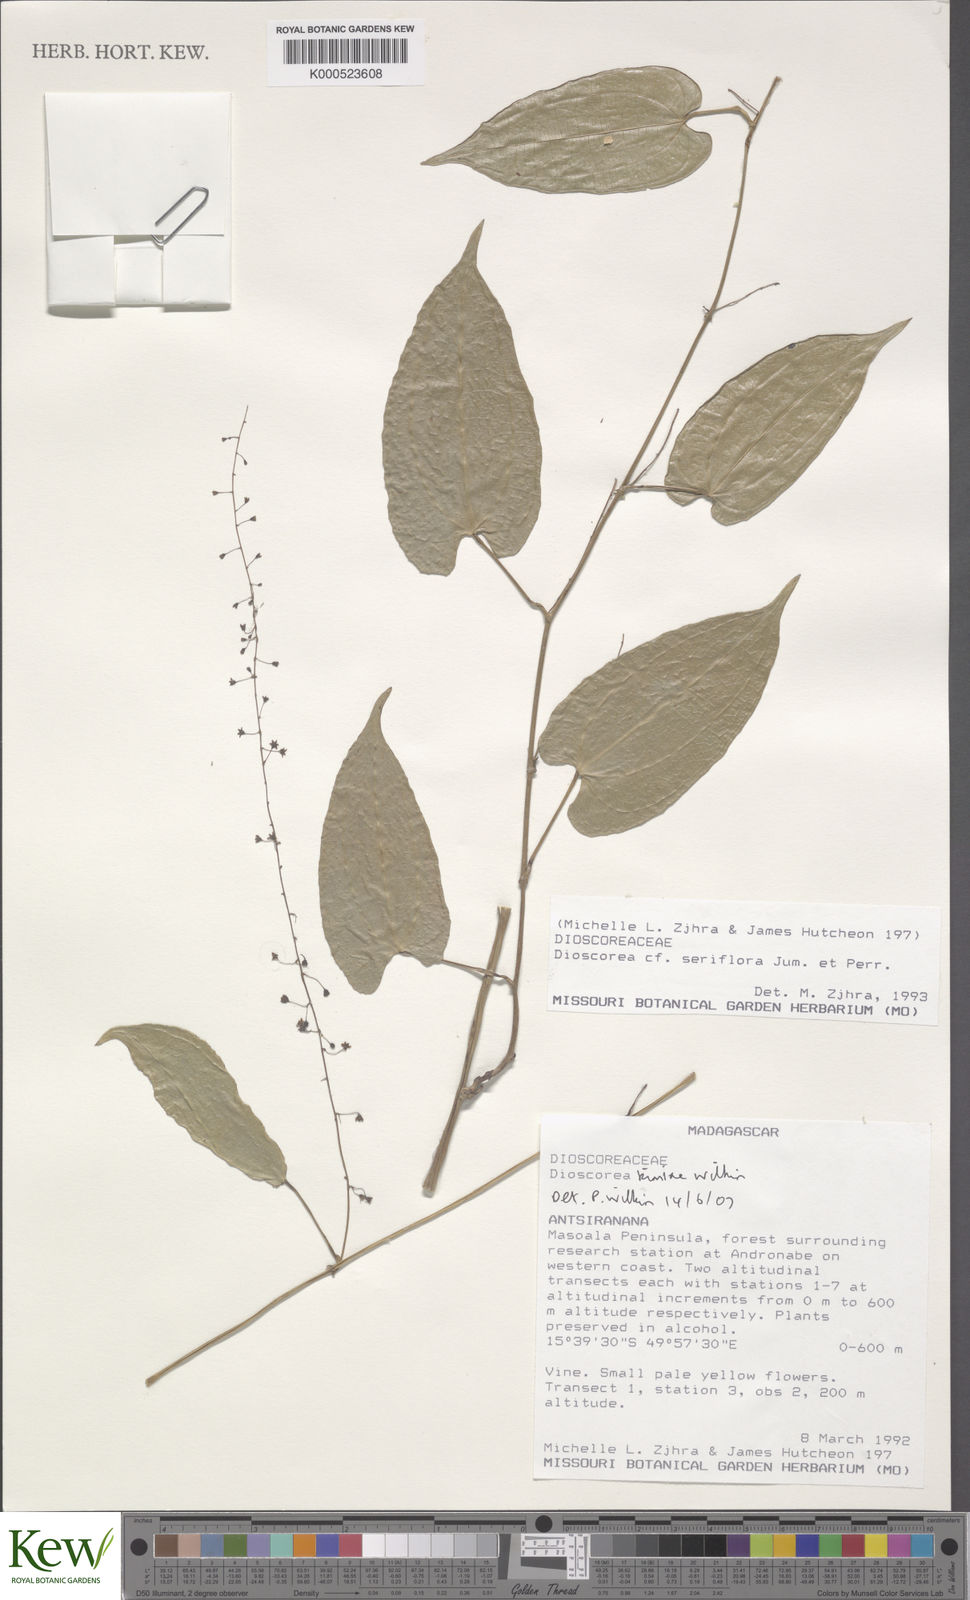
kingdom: Plantae
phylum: Tracheophyta
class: Liliopsida
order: Dioscoreales
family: Dioscoreaceae
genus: Dioscorea
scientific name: Dioscorea kimiae
